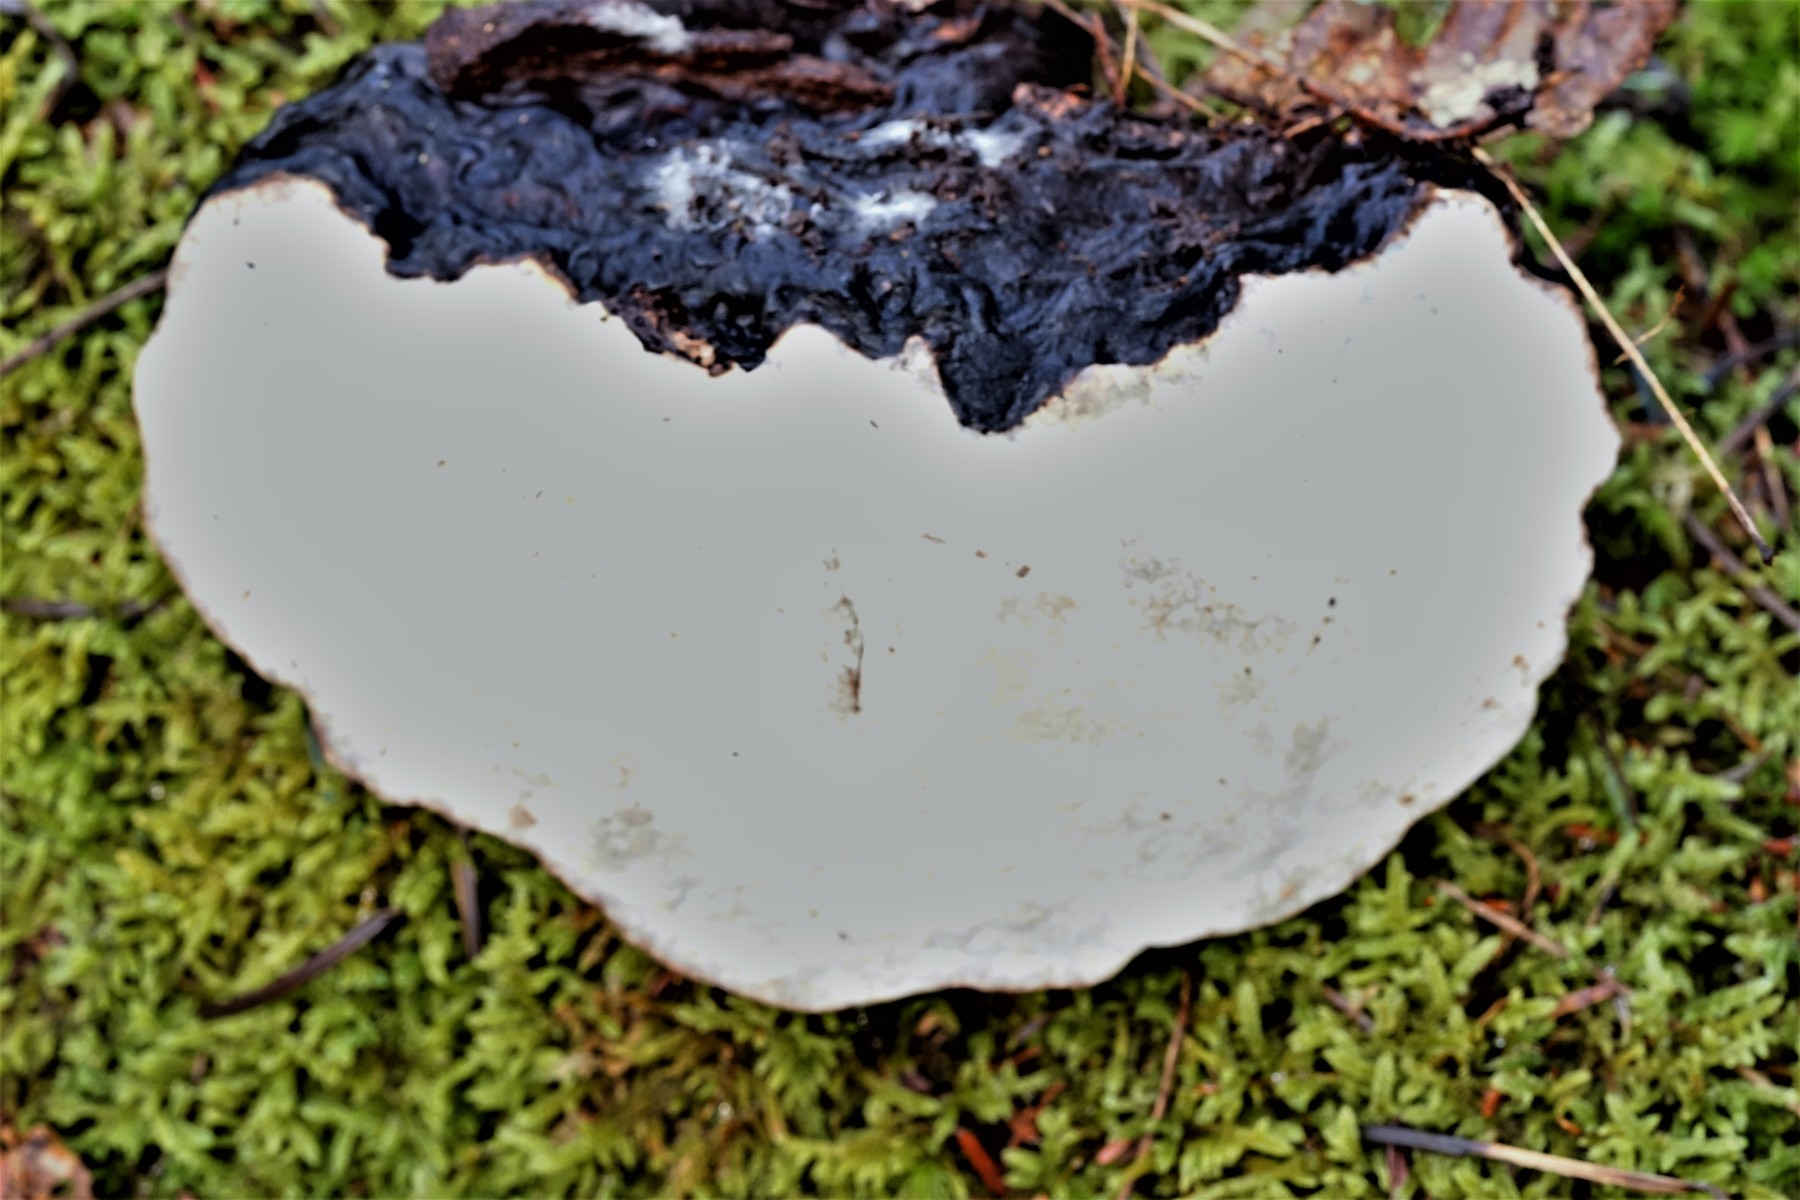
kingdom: Fungi
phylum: Basidiomycota
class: Agaricomycetes
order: Polyporales
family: Polyporaceae
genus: Ganoderma
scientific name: Ganoderma lucidum
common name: skinnende lakporesvamp
